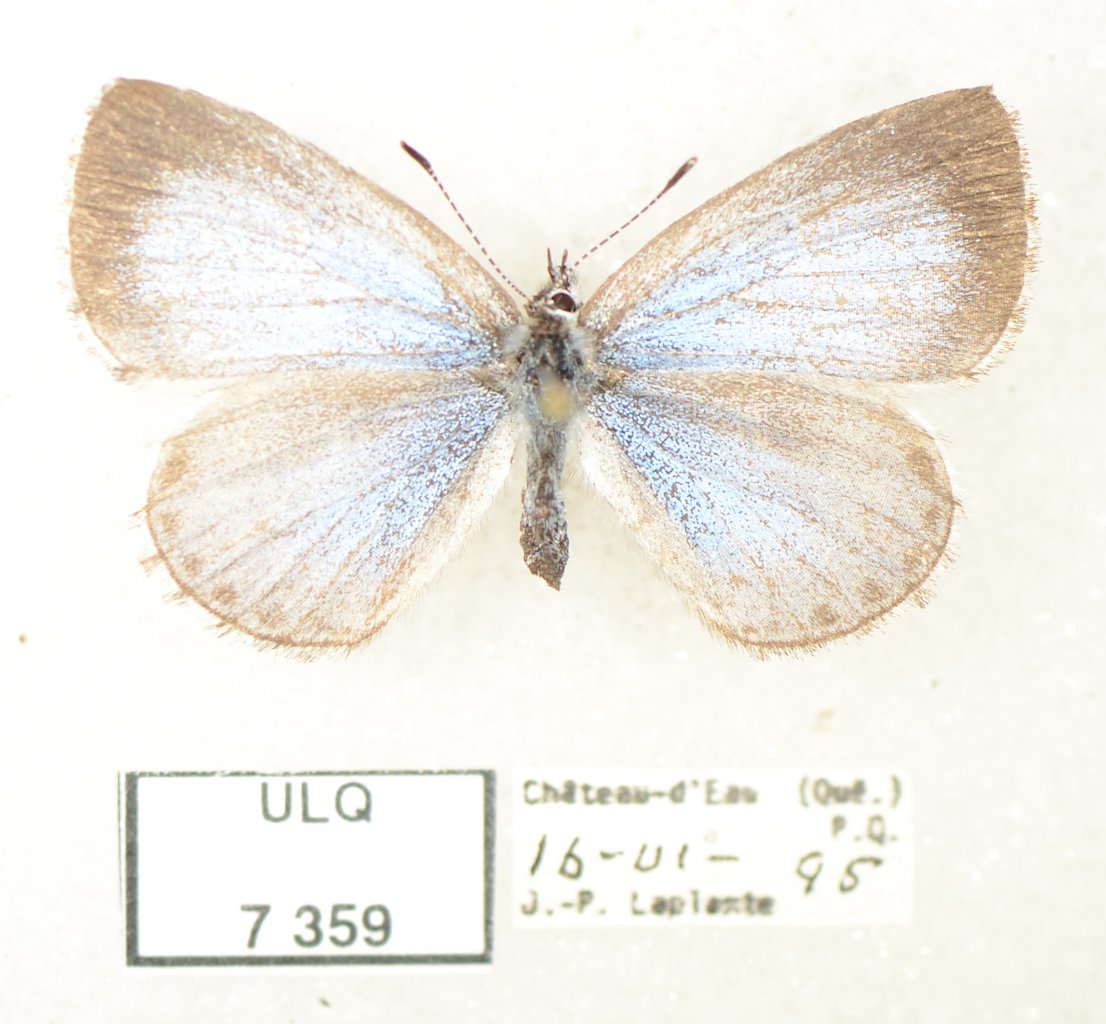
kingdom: Animalia
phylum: Arthropoda
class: Insecta
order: Lepidoptera
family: Lycaenidae
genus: Celastrina
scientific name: Celastrina lucia
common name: Northern Spring Azure
